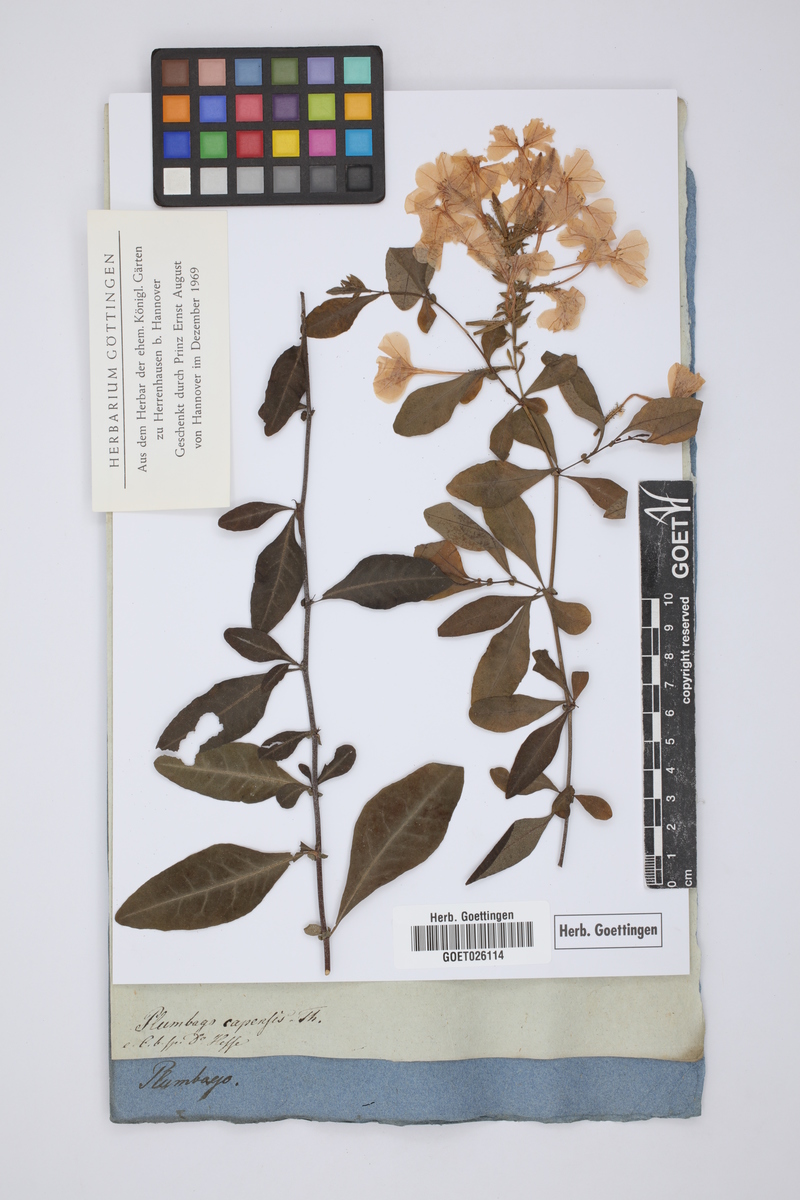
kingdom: Plantae
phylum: Tracheophyta
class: Magnoliopsida
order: Caryophyllales
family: Plumbaginaceae
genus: Plumbago
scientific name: Plumbago auriculata
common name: Cape leadwort
